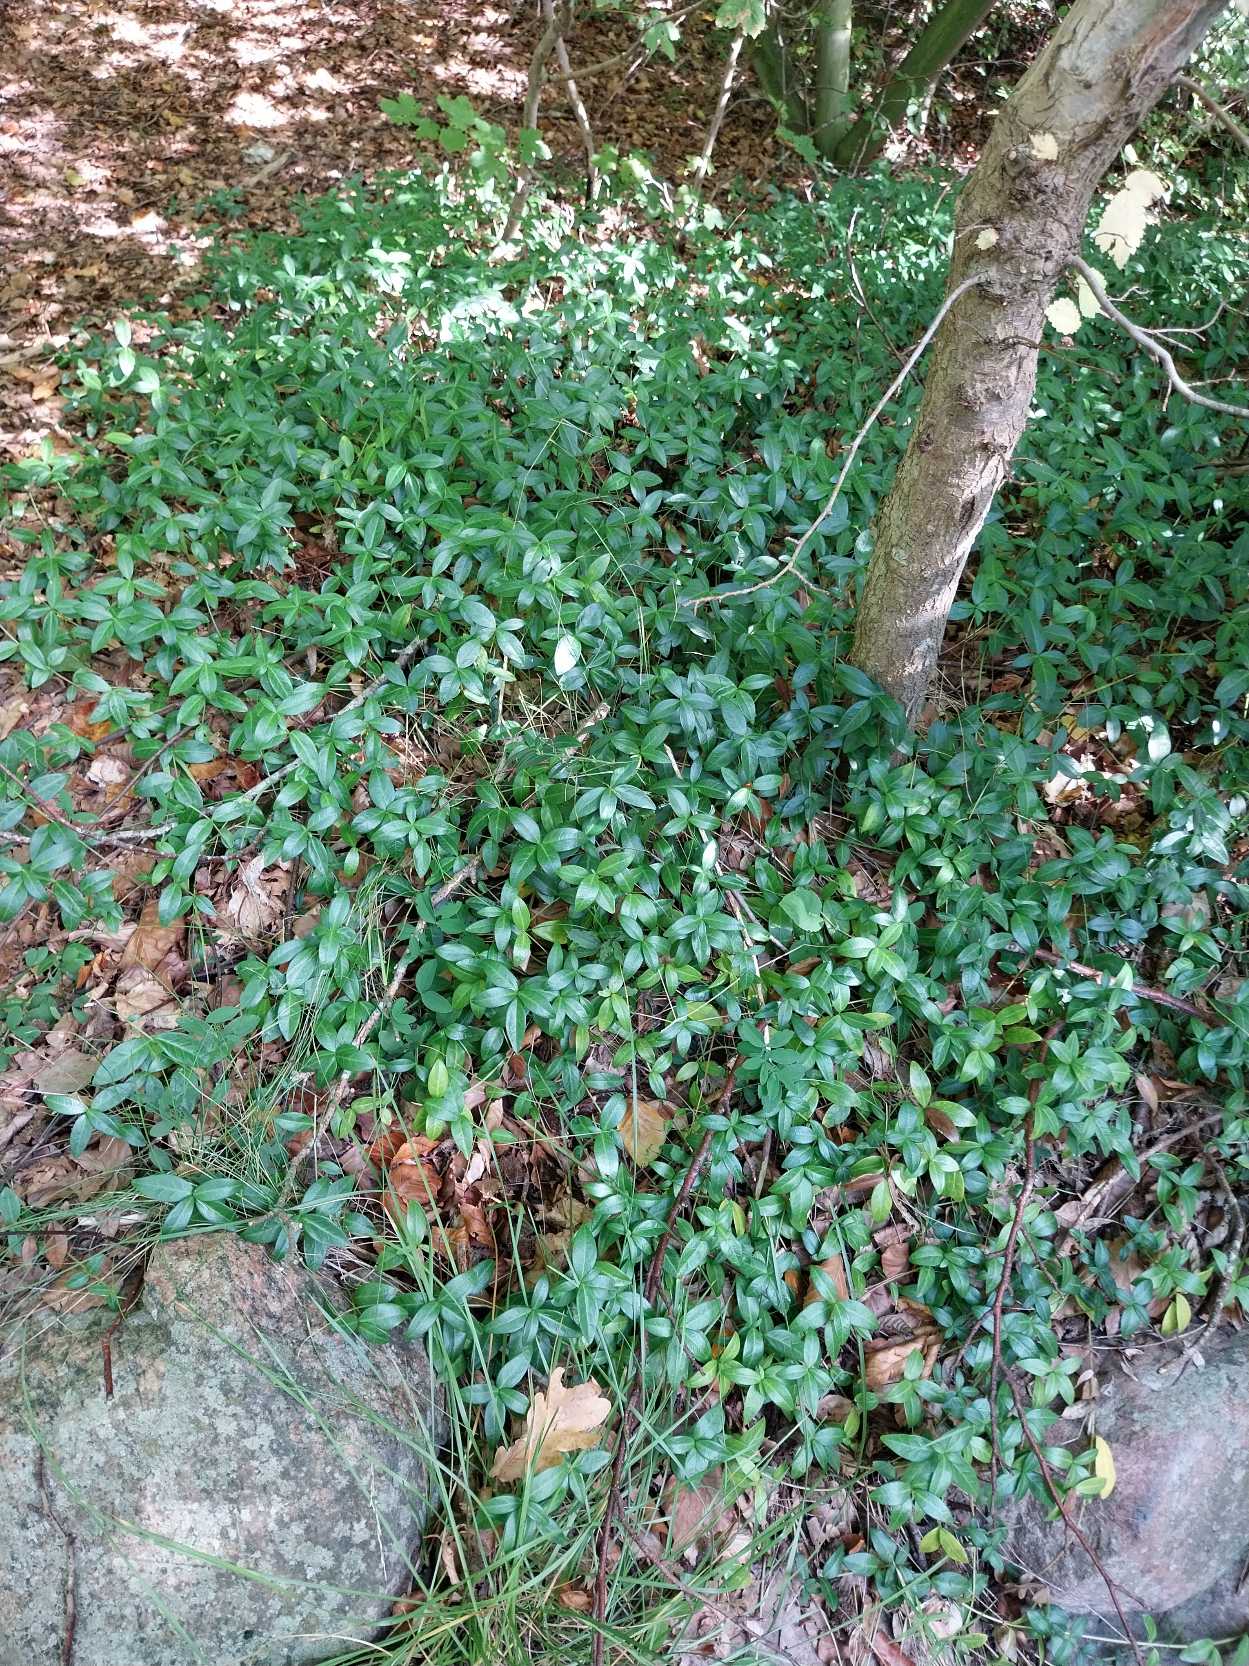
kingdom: Plantae
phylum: Tracheophyta
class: Magnoliopsida
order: Gentianales
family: Apocynaceae
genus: Vinca
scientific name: Vinca minor
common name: Liden singrøn
